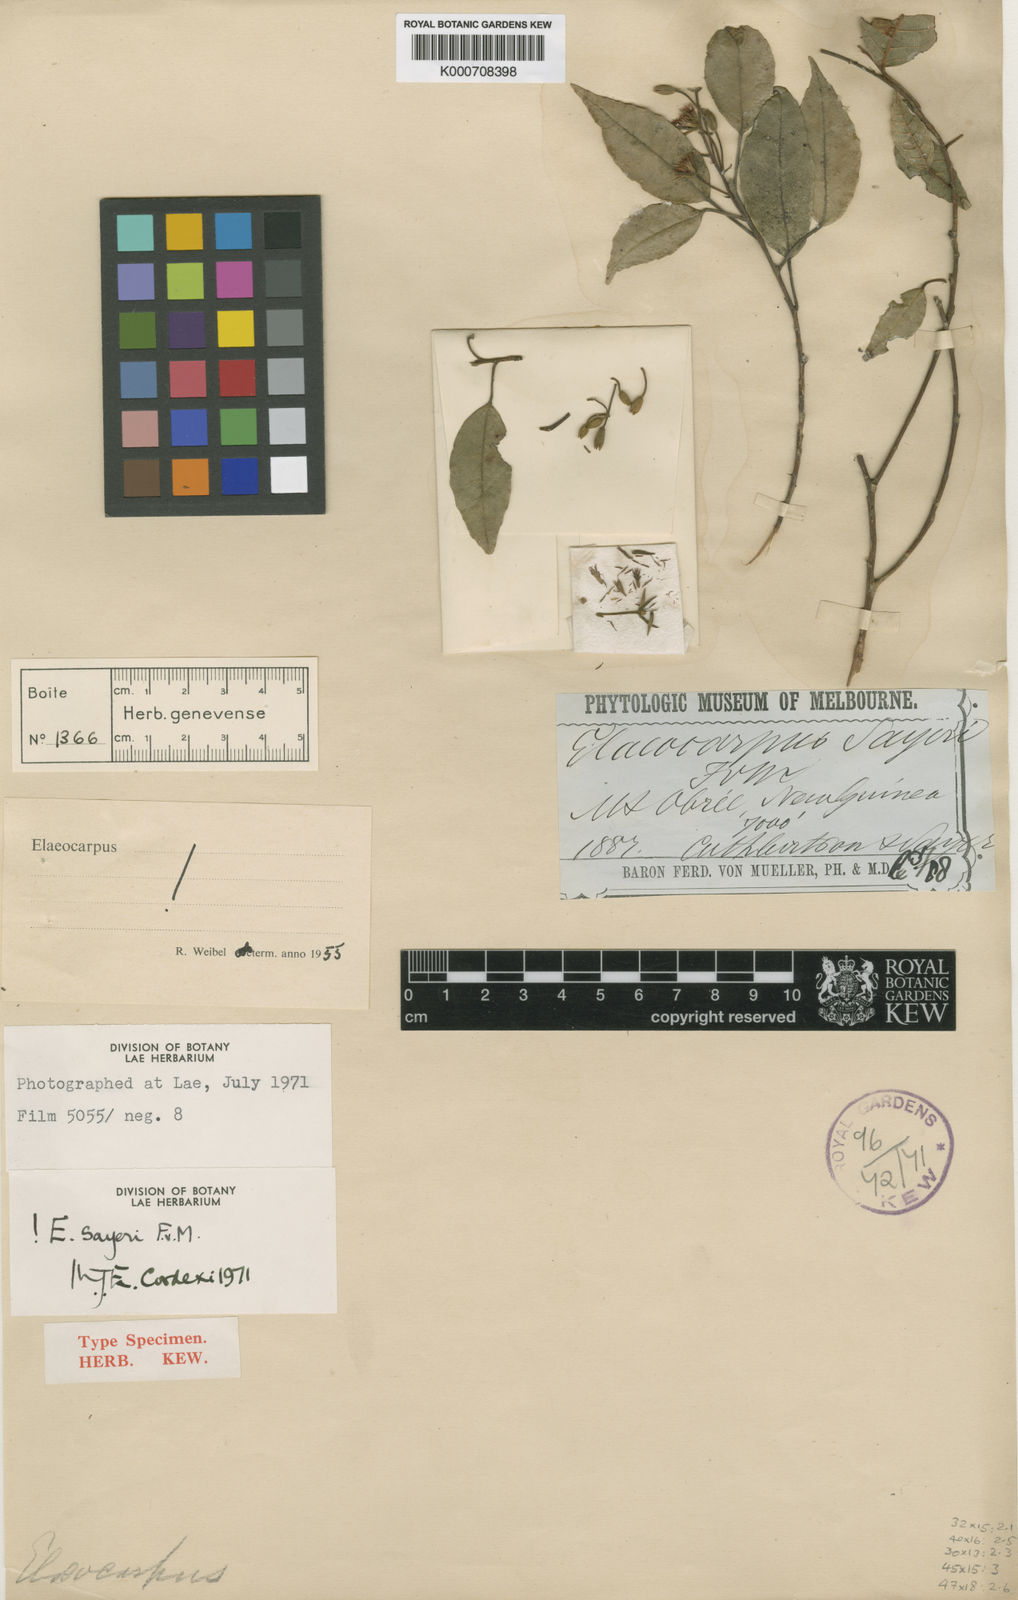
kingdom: Plantae
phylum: Tracheophyta
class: Magnoliopsida
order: Oxalidales
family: Elaeocarpaceae
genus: Elaeocarpus
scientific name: Elaeocarpus sayeri
